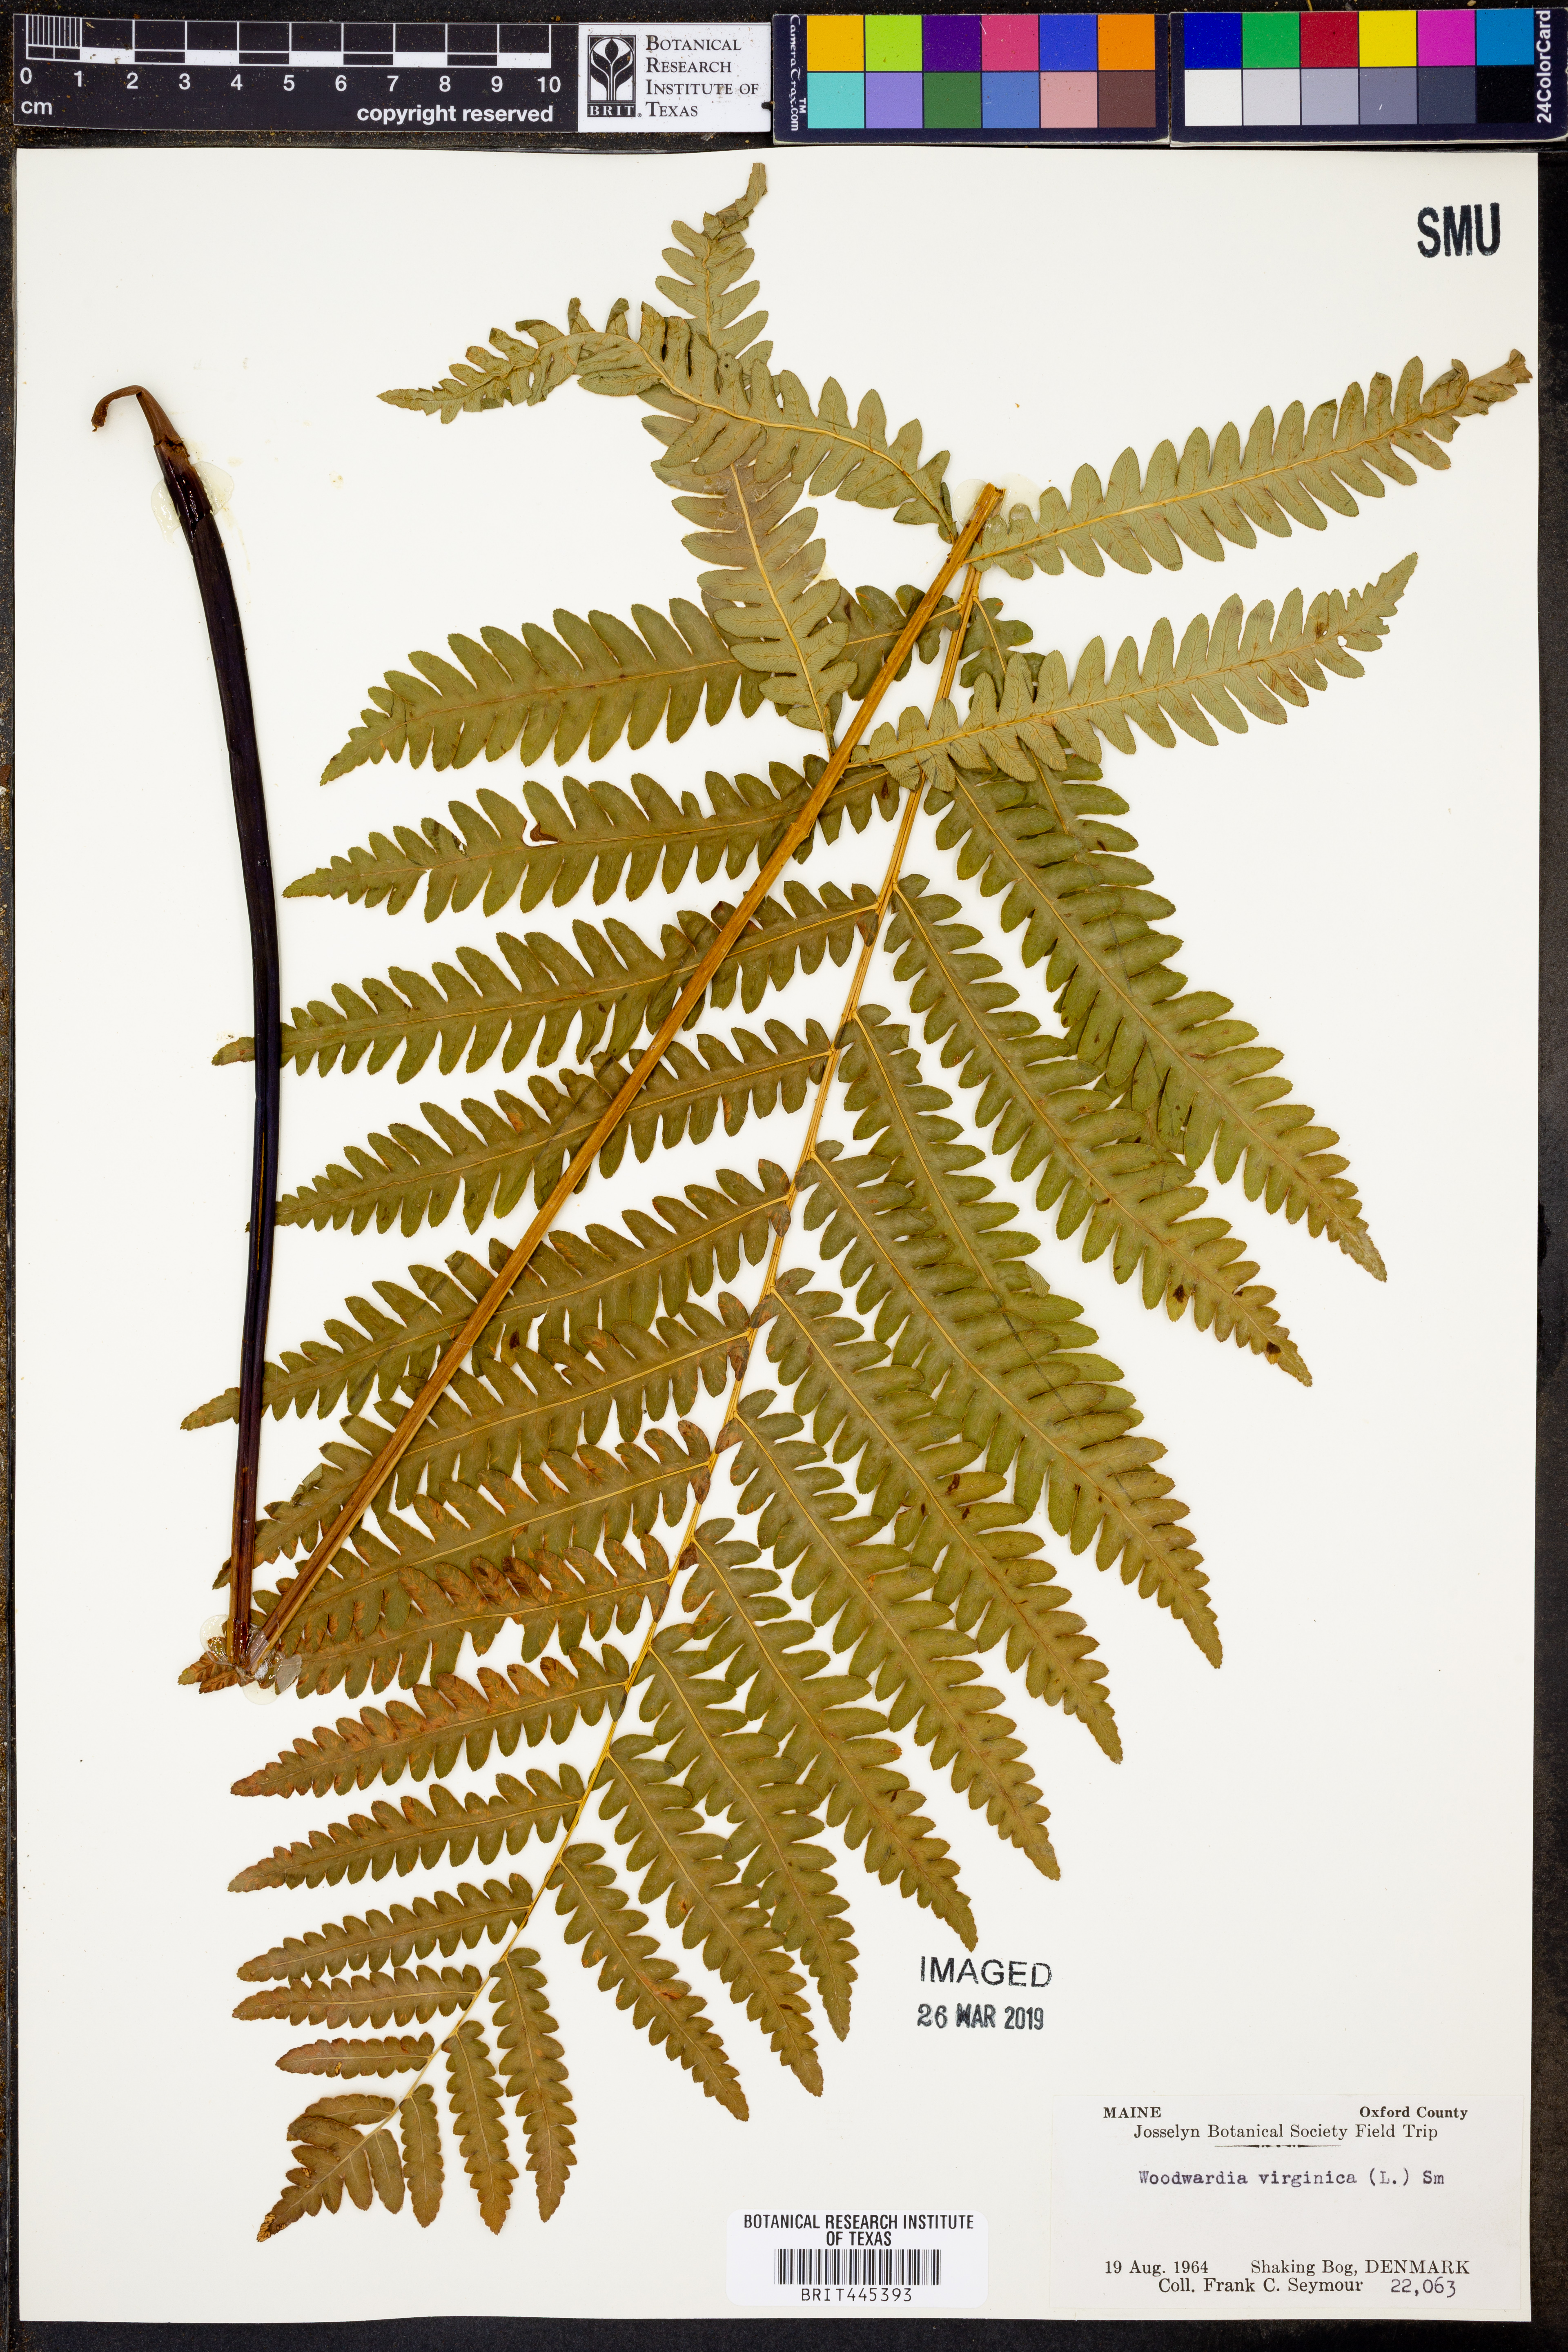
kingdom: Plantae
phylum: Tracheophyta
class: Polypodiopsida
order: Polypodiales
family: Blechnaceae
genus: Anchistea
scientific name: Anchistea virginica
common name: Virginia chain fern
